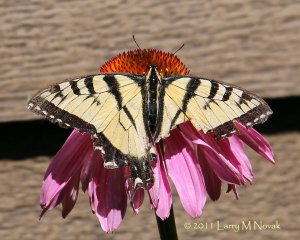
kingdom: Animalia
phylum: Arthropoda
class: Insecta
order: Lepidoptera
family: Papilionidae
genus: Pterourus
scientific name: Pterourus glaucus
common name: Eastern Tiger Swallowtail
